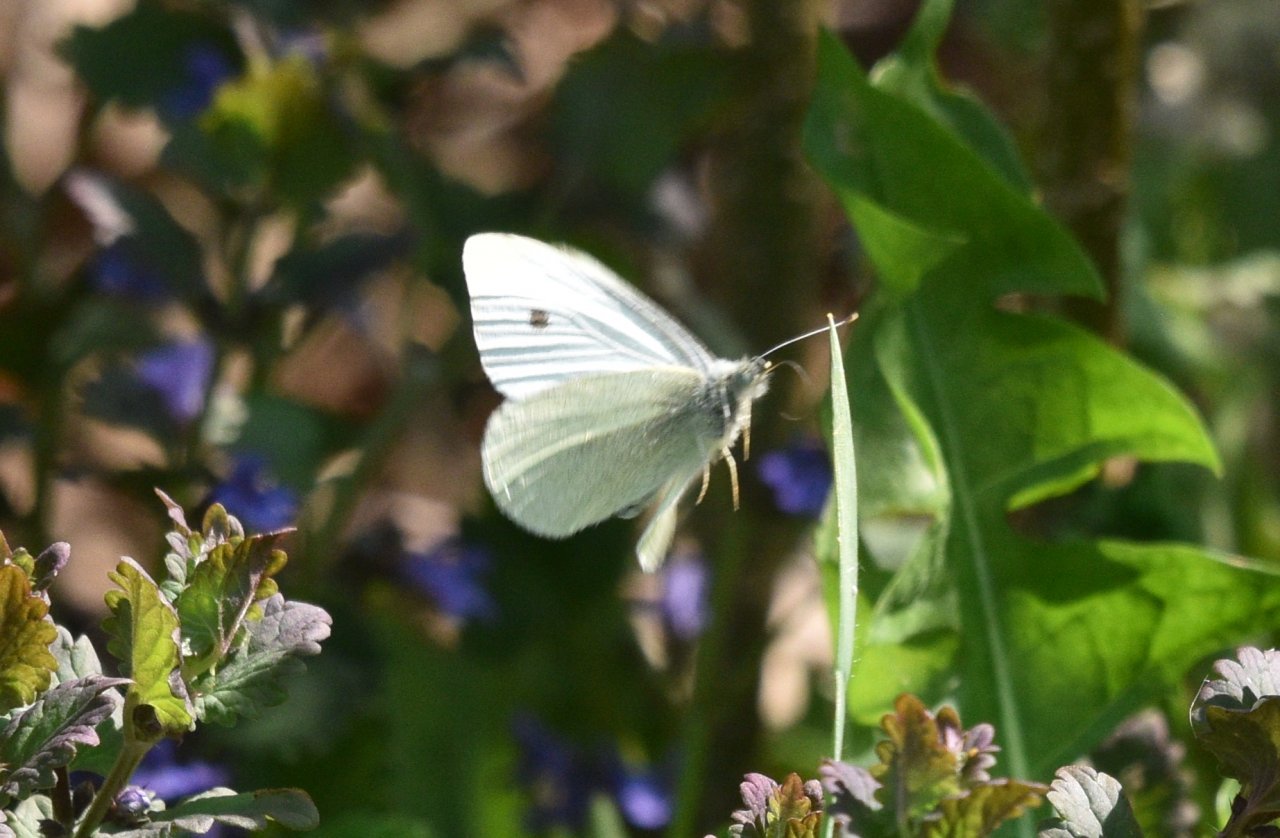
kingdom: Animalia
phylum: Arthropoda
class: Insecta
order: Lepidoptera
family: Pieridae
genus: Pieris
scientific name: Pieris rapae
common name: Cabbage White
